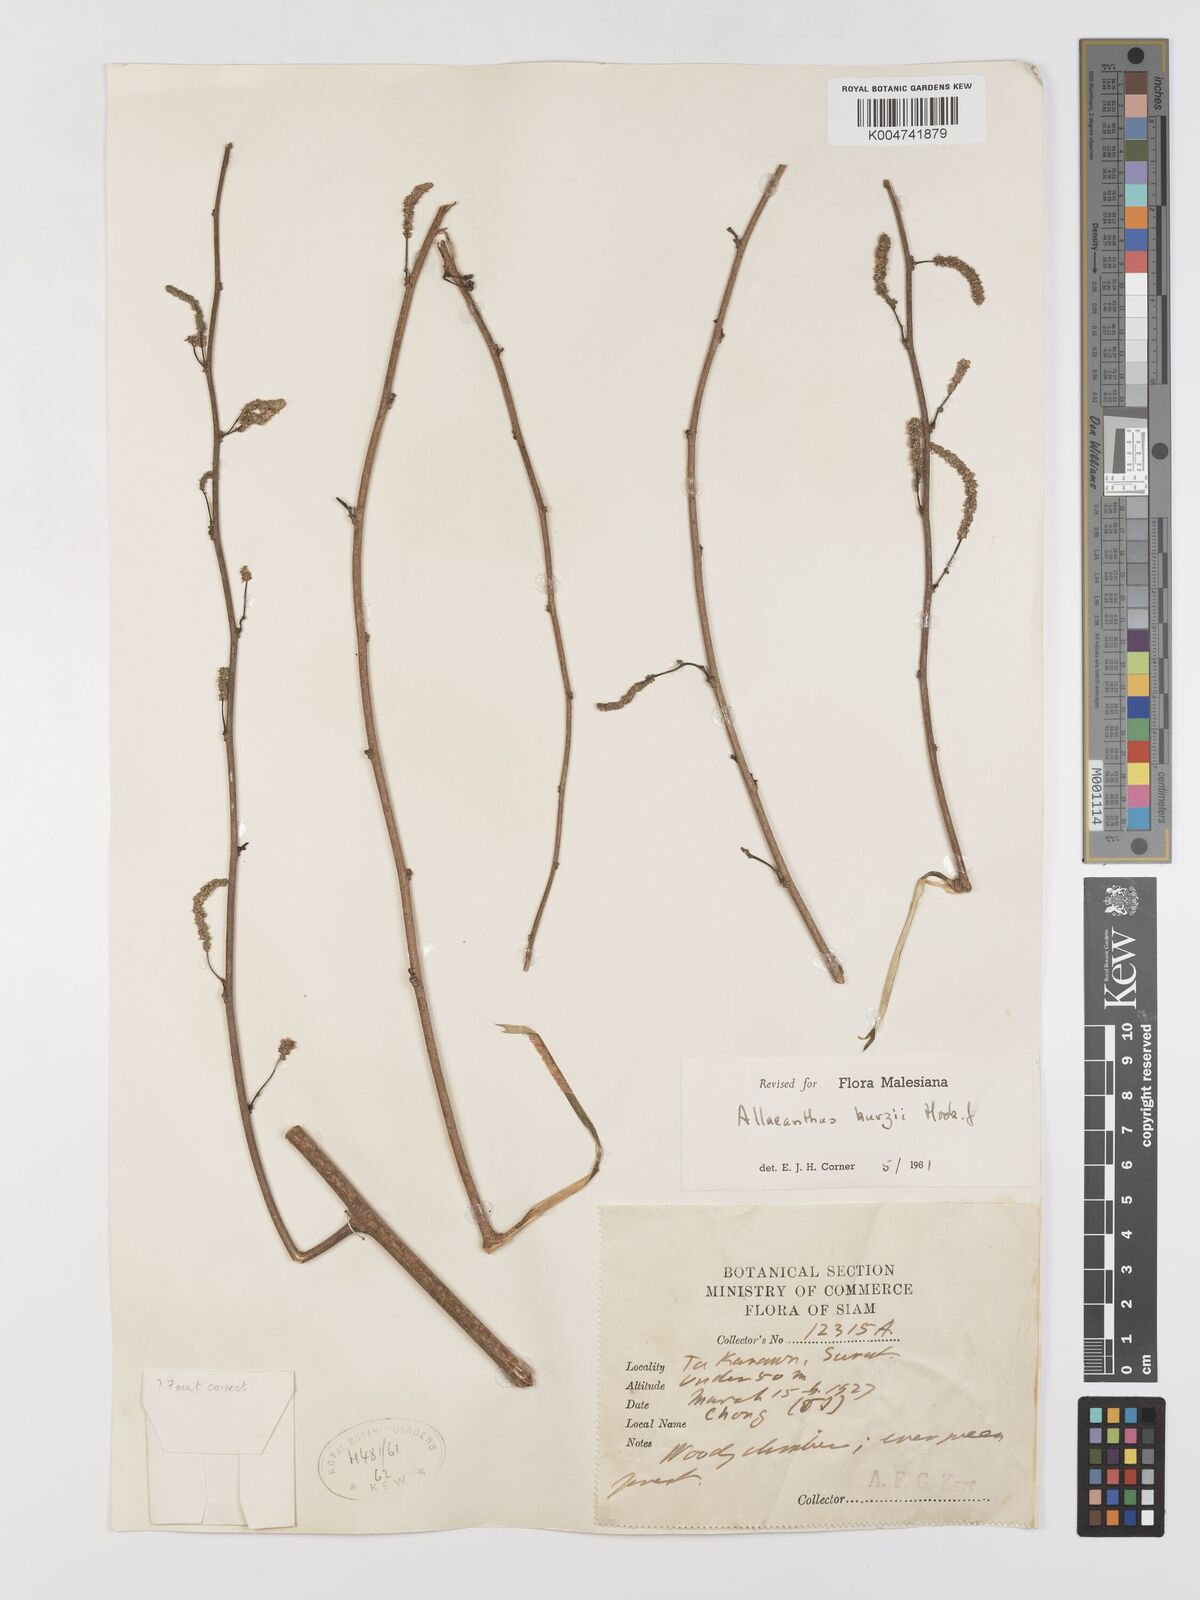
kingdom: Plantae
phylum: Tracheophyta
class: Magnoliopsida
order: Rosales
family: Moraceae
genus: Allaeanthus
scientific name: Allaeanthus kurzii
